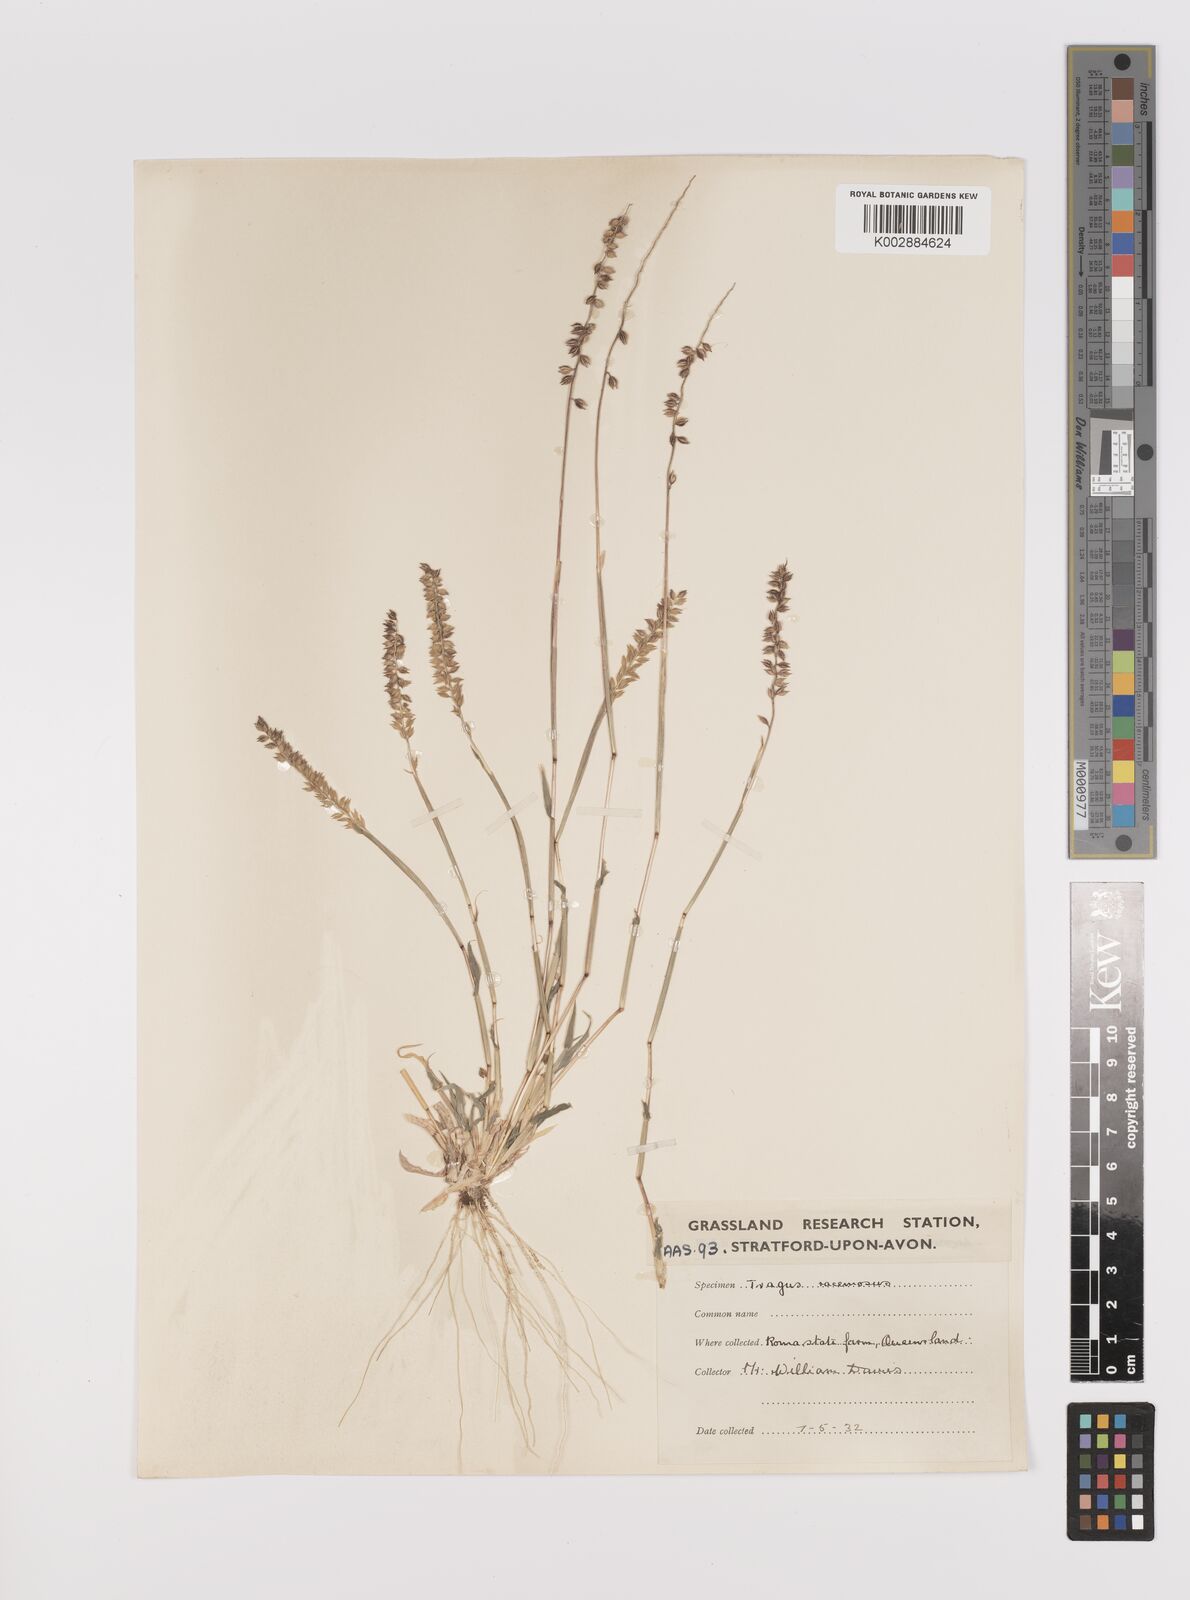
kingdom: Plantae
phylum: Tracheophyta
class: Liliopsida
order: Poales
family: Poaceae
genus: Tragus
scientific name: Tragus australianus
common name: Australian bur-grass
